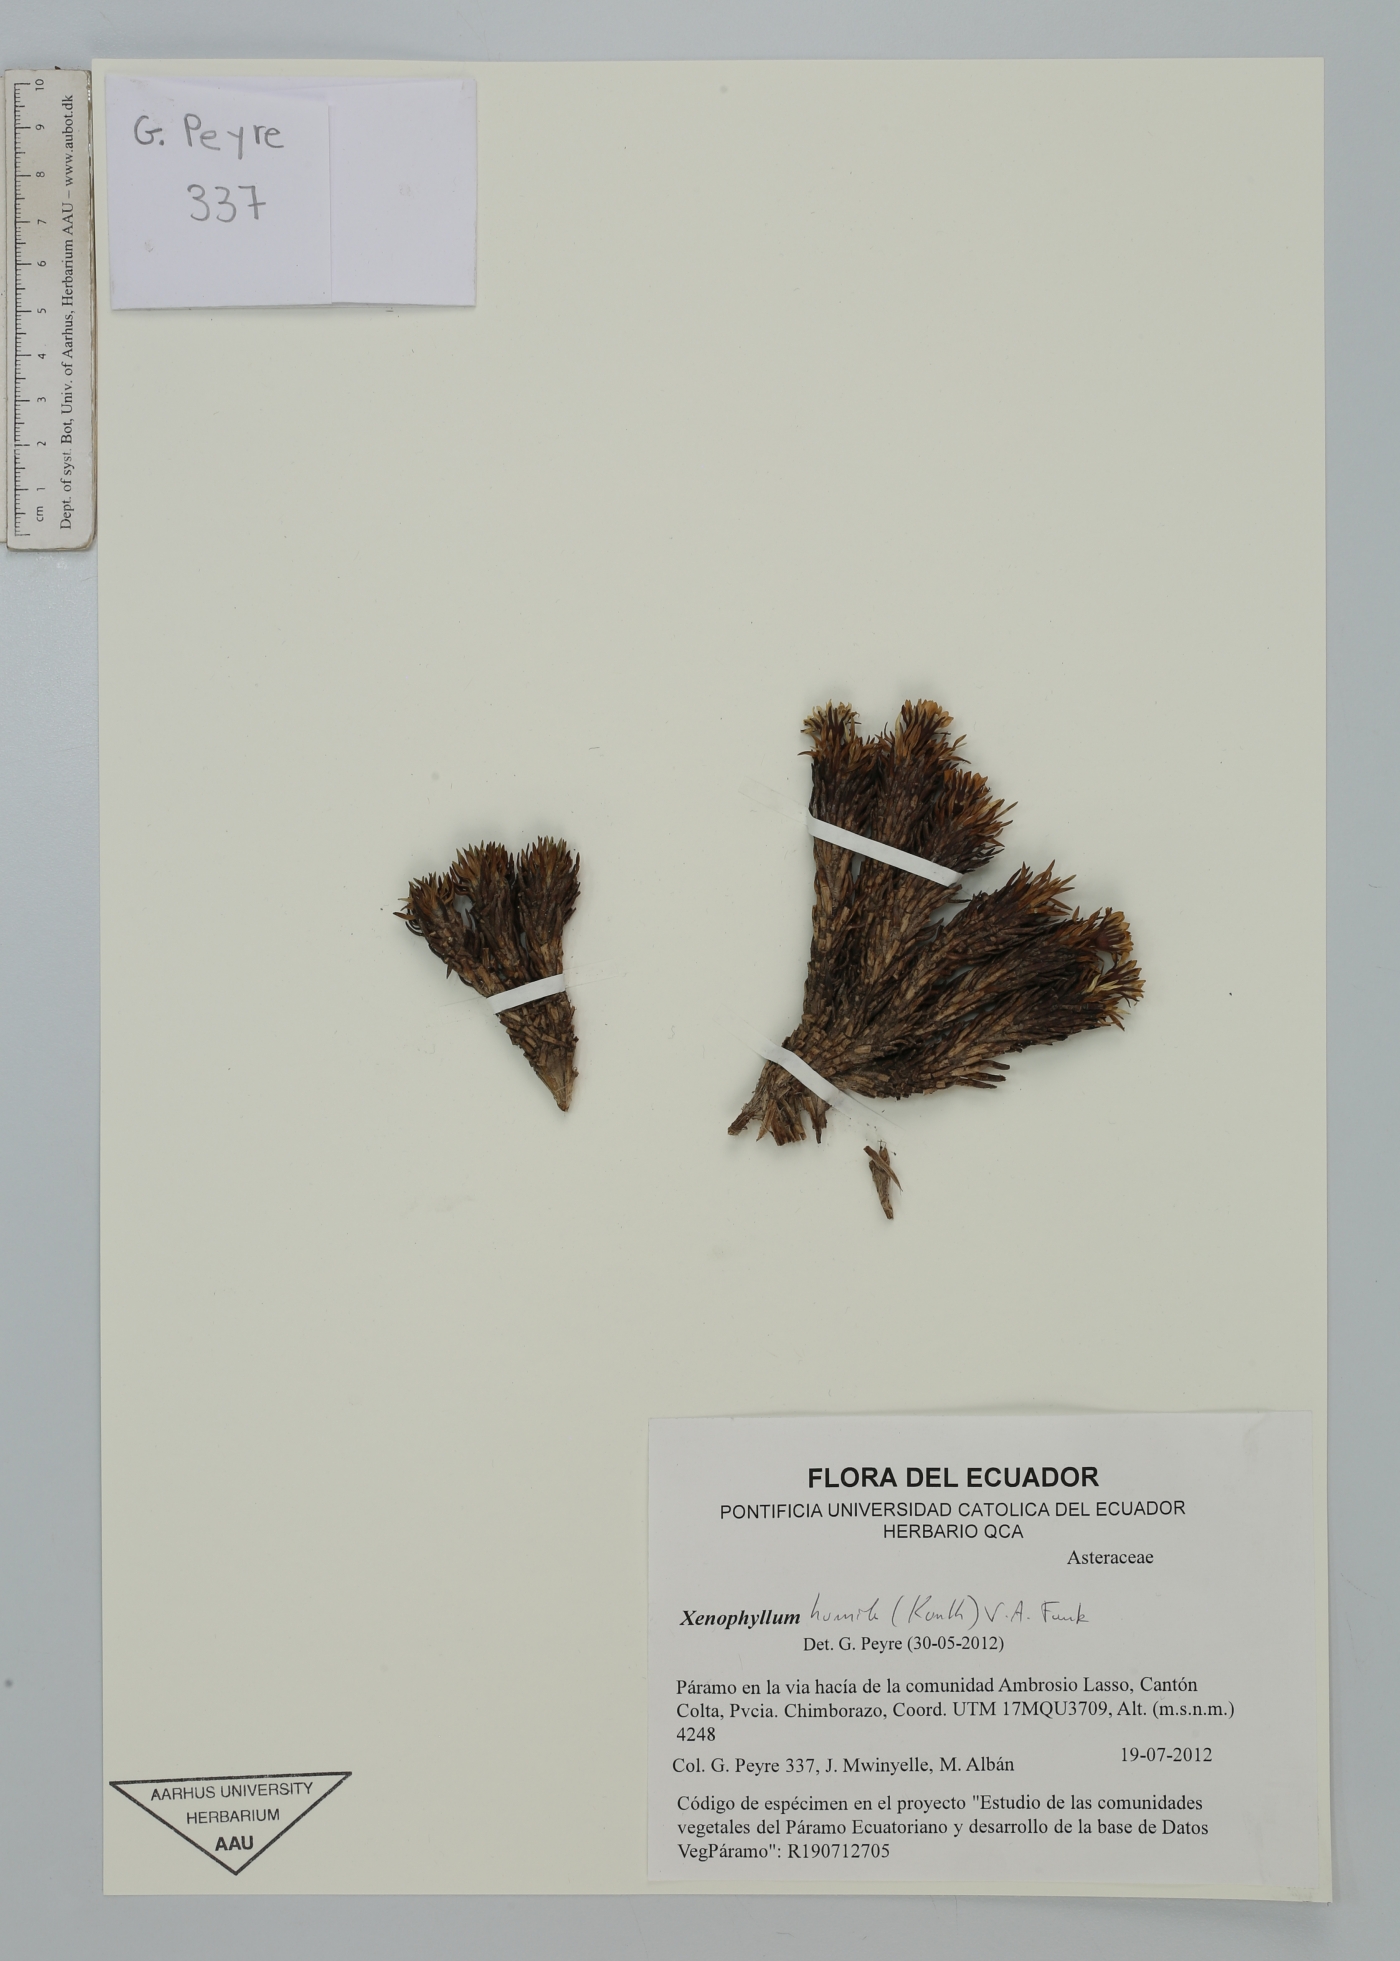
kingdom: Plantae
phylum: Tracheophyta
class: Magnoliopsida
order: Asterales
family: Asteraceae
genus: Werneria
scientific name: Werneria humilis
